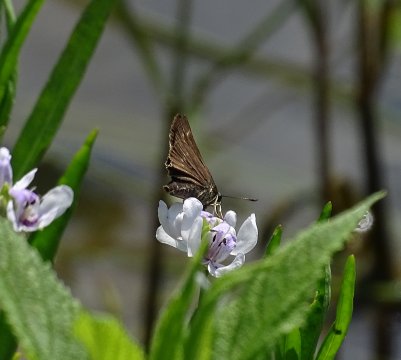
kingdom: Animalia
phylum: Arthropoda
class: Insecta
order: Lepidoptera
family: Hesperiidae
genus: Vernia
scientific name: Vernia verna
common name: Little Glassywing
